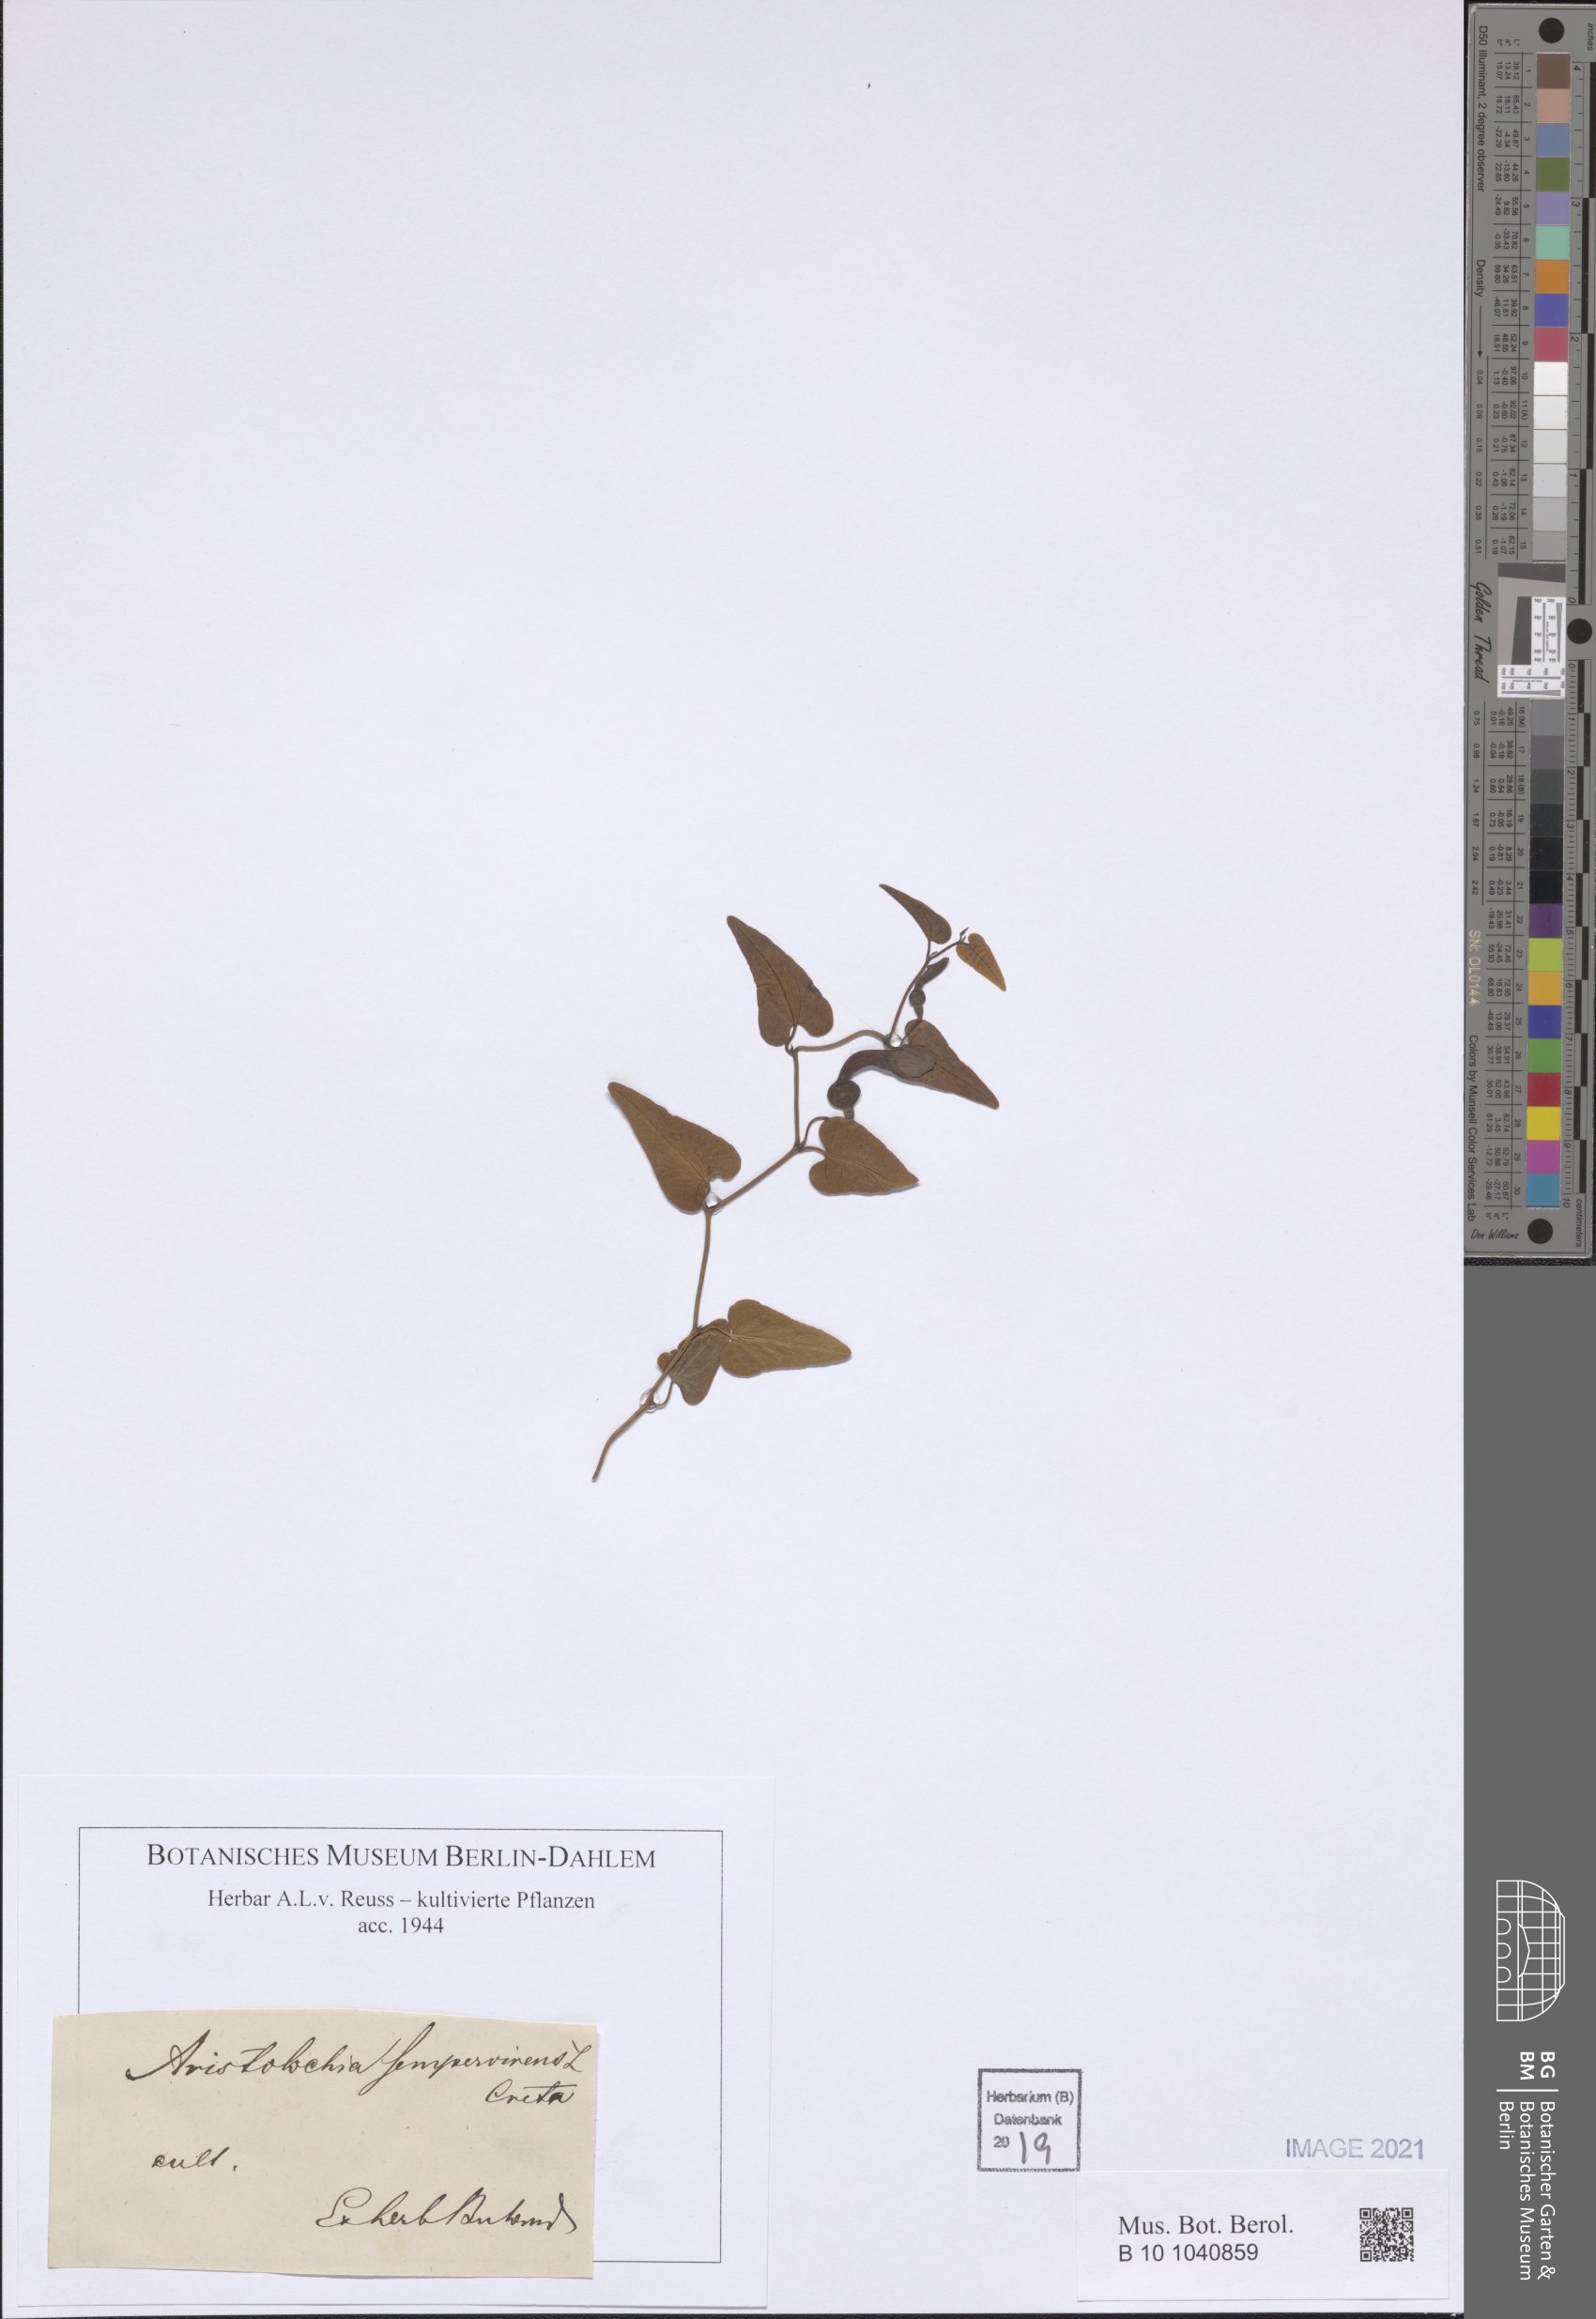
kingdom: Plantae
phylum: Tracheophyta
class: Magnoliopsida
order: Piperales
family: Aristolochiaceae
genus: Aristolochia
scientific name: Aristolochia sempervirens
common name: Long birthwort
